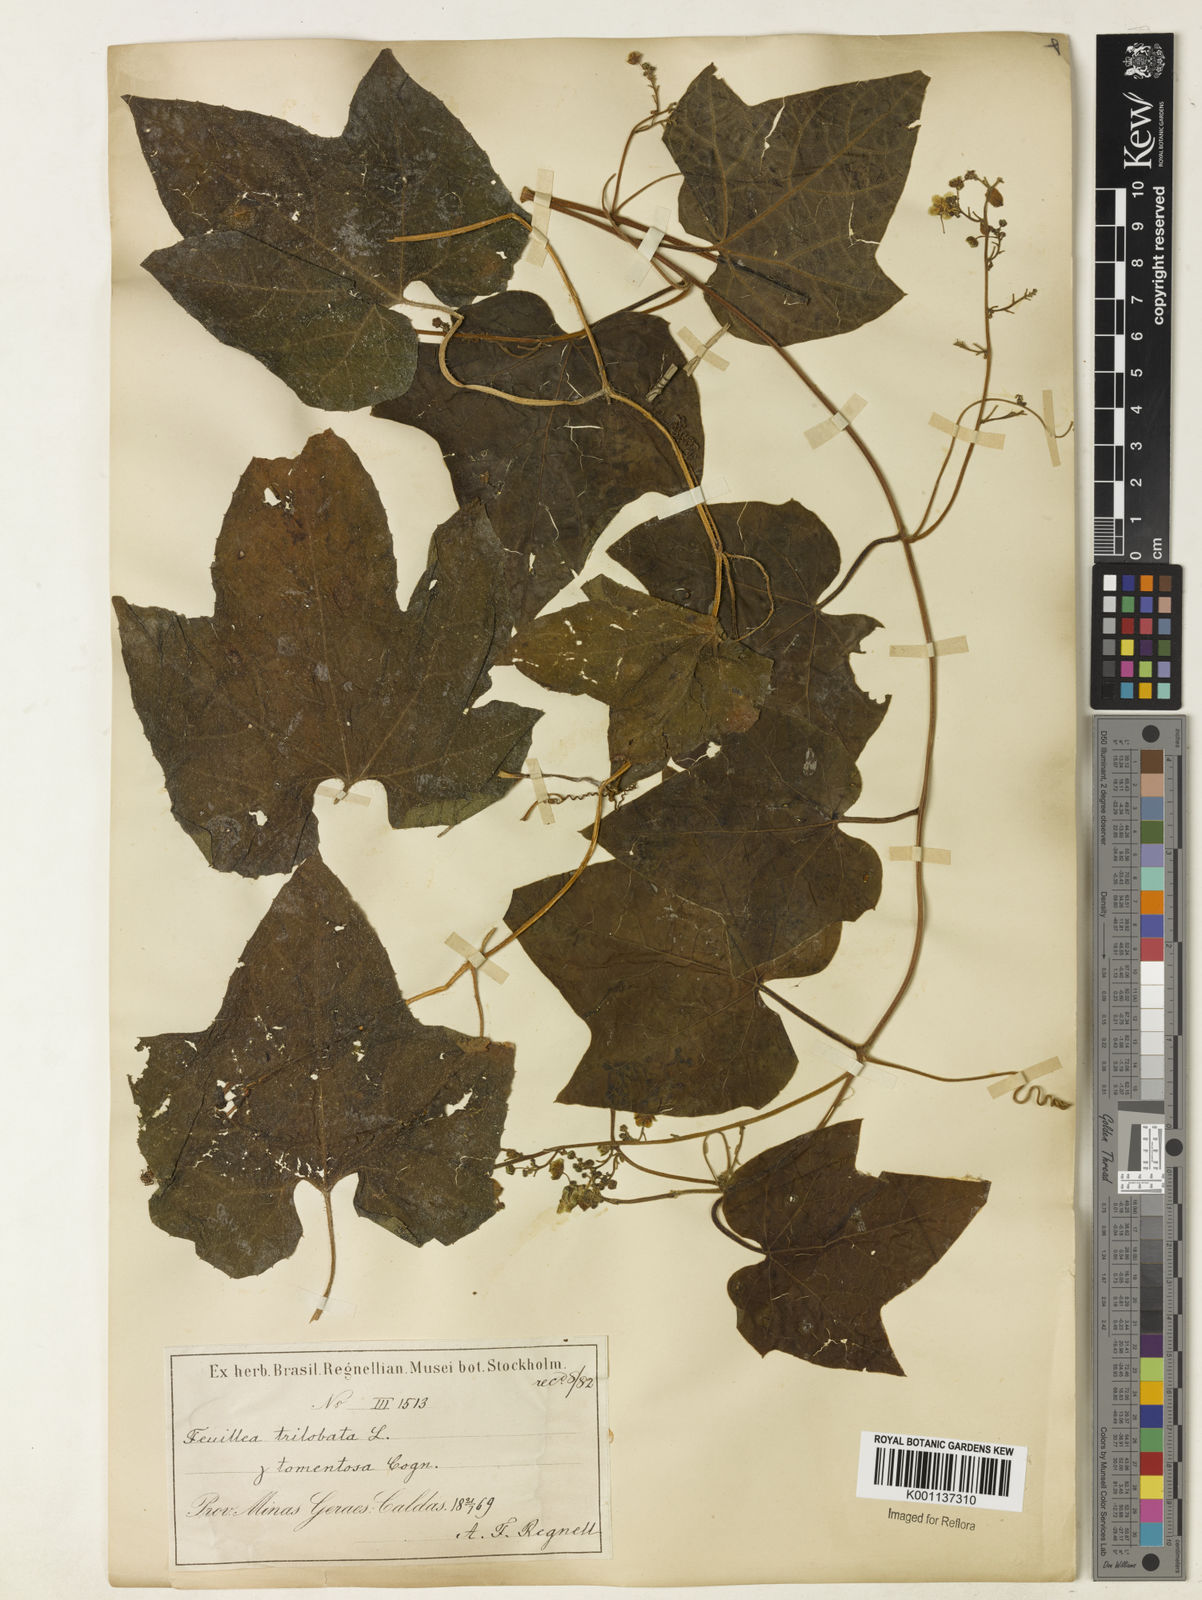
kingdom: Plantae
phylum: Tracheophyta
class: Magnoliopsida
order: Cucurbitales
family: Cucurbitaceae
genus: Fevillea
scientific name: Fevillea trilobata
